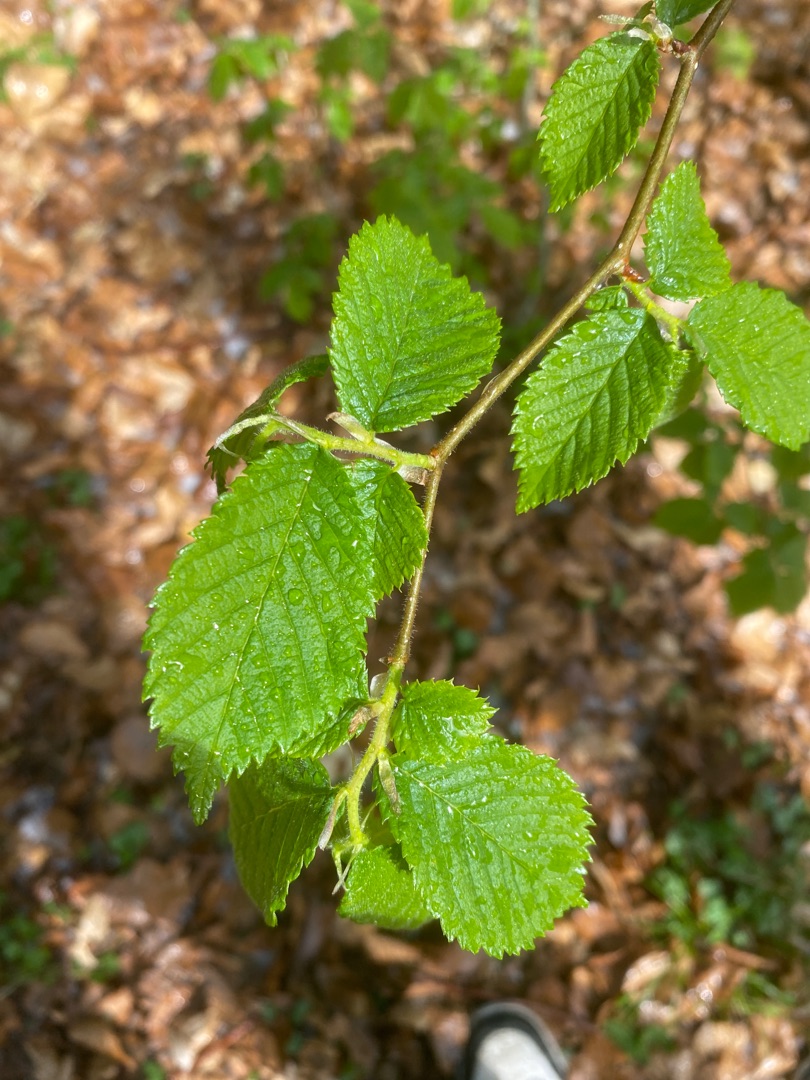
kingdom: Plantae
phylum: Tracheophyta
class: Magnoliopsida
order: Rosales
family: Ulmaceae
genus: Ulmus
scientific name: Ulmus glabra
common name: Skov-elm/storbladet elm
